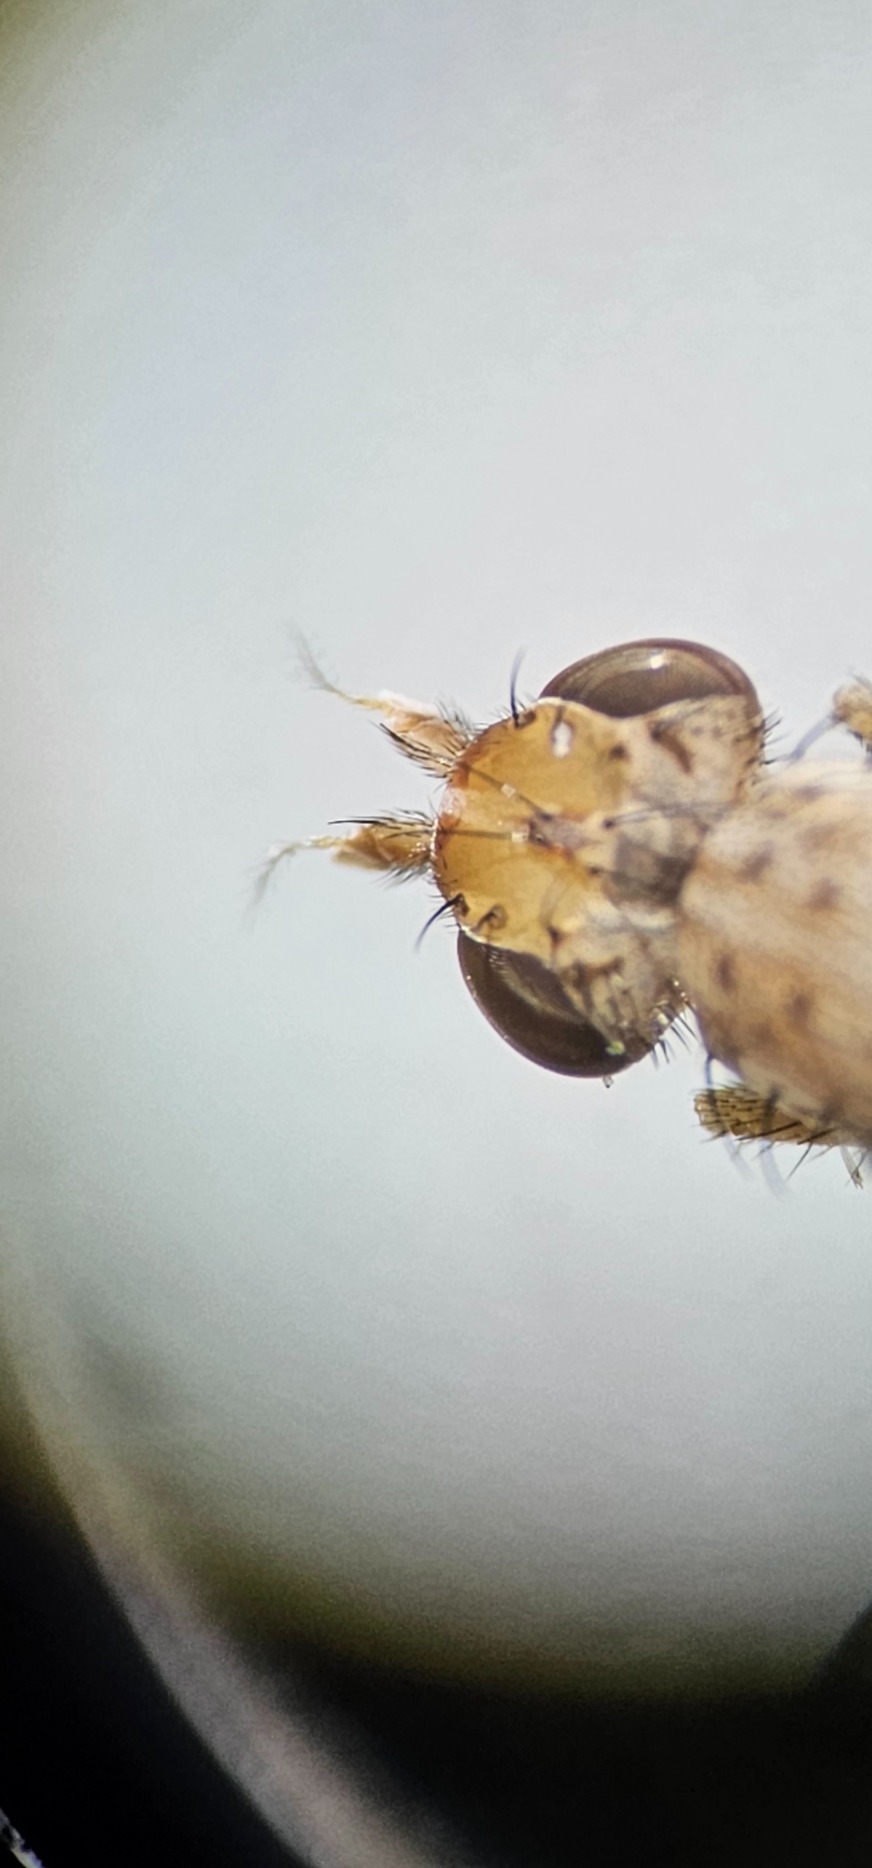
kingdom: Animalia
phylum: Arthropoda
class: Insecta
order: Diptera
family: Sciomyzidae
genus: Trypetoptera
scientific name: Trypetoptera punctulata
